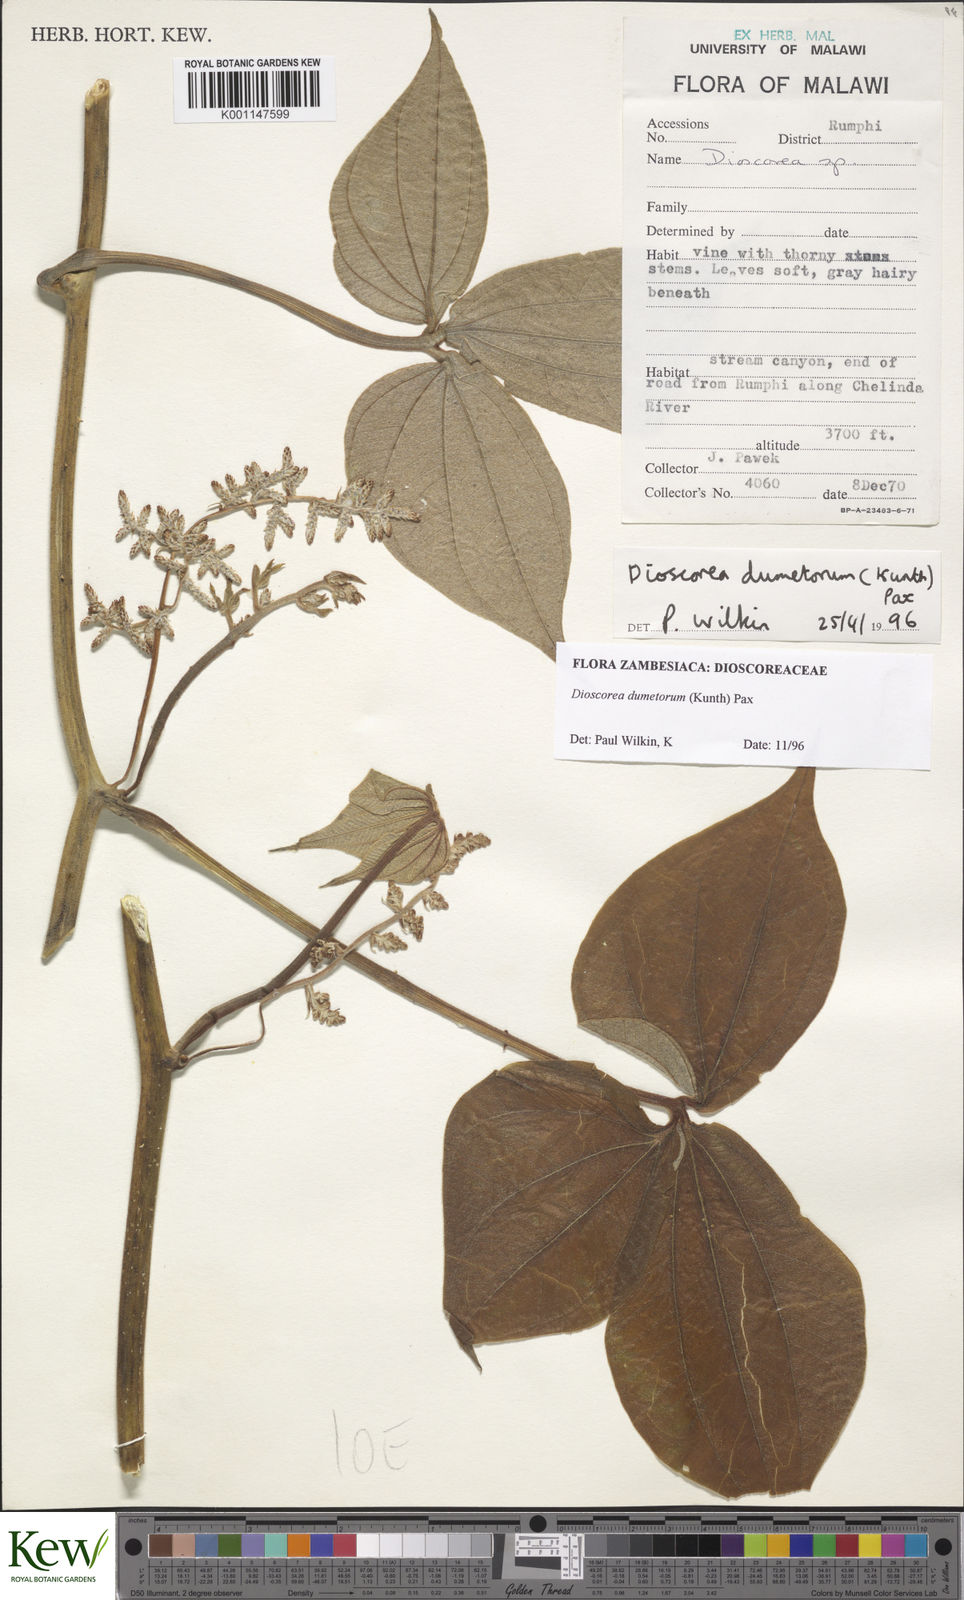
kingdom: Plantae
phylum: Tracheophyta
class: Liliopsida
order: Dioscoreales
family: Dioscoreaceae
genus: Dioscorea
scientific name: Dioscorea dumetorum
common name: African bitter yam
